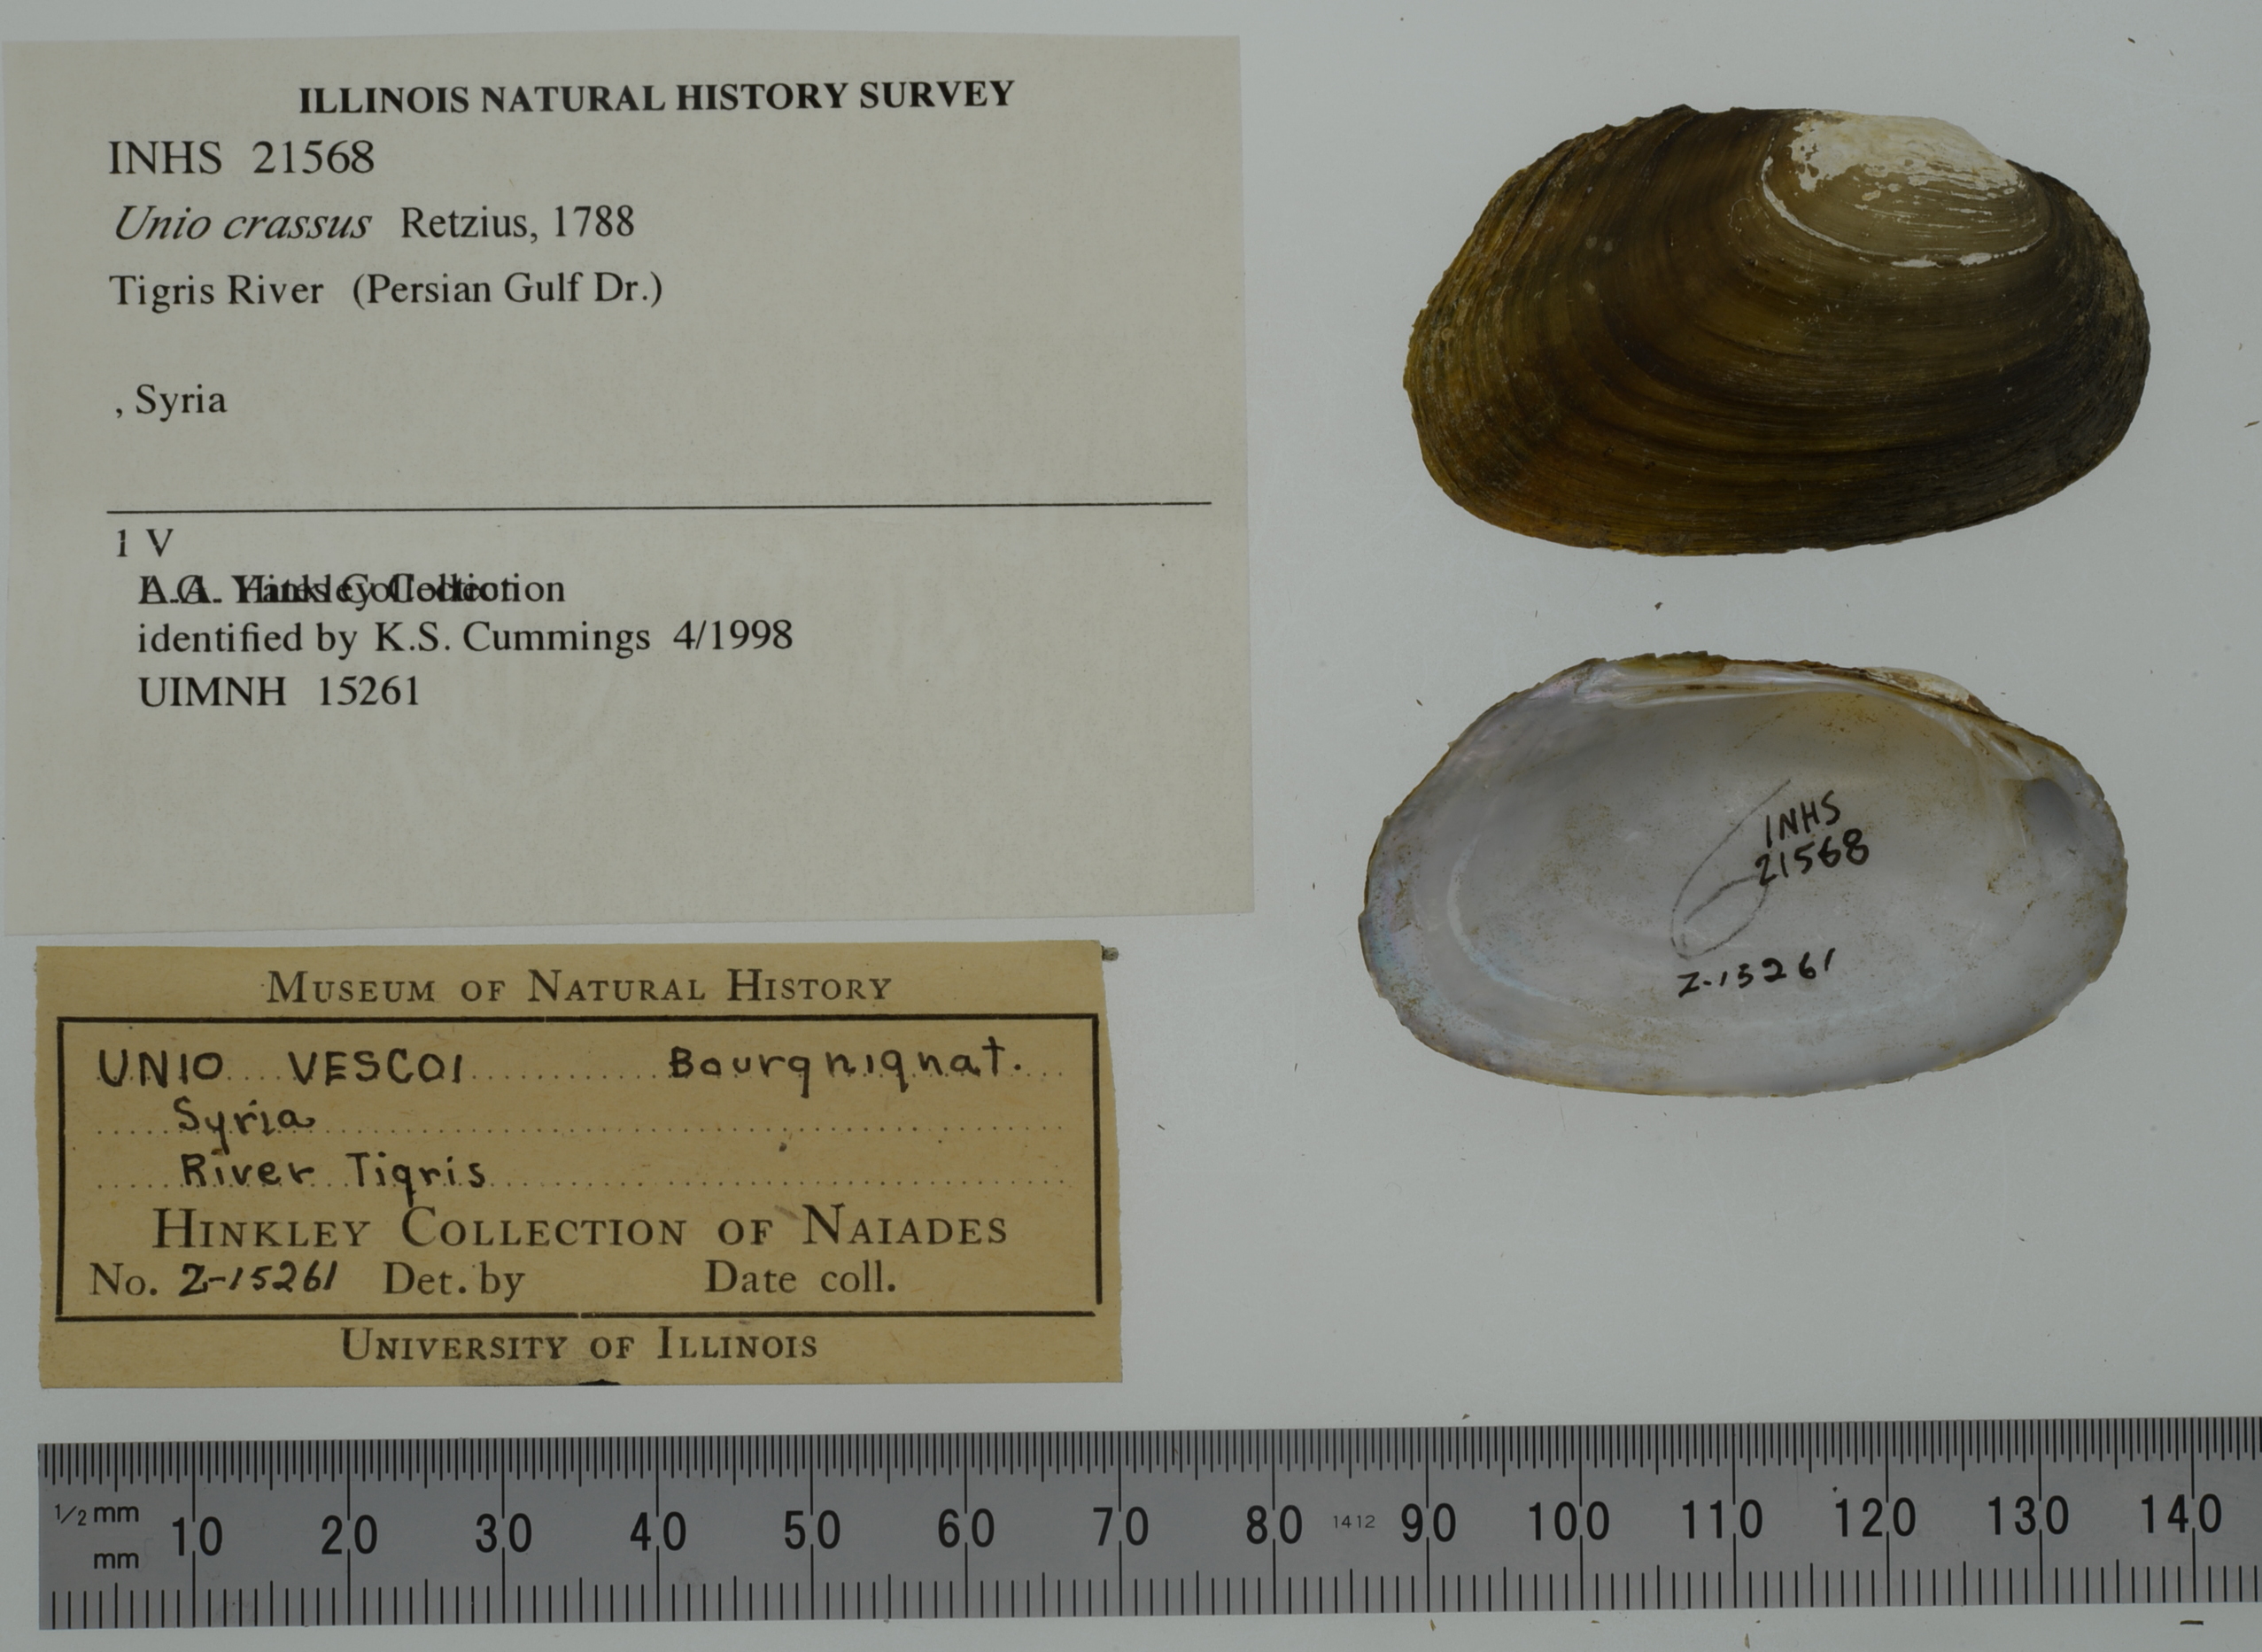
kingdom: Animalia
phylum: Mollusca
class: Bivalvia
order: Unionida
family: Unionidae
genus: Unio
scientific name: Unio crassus
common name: Thick shelled river mussel
